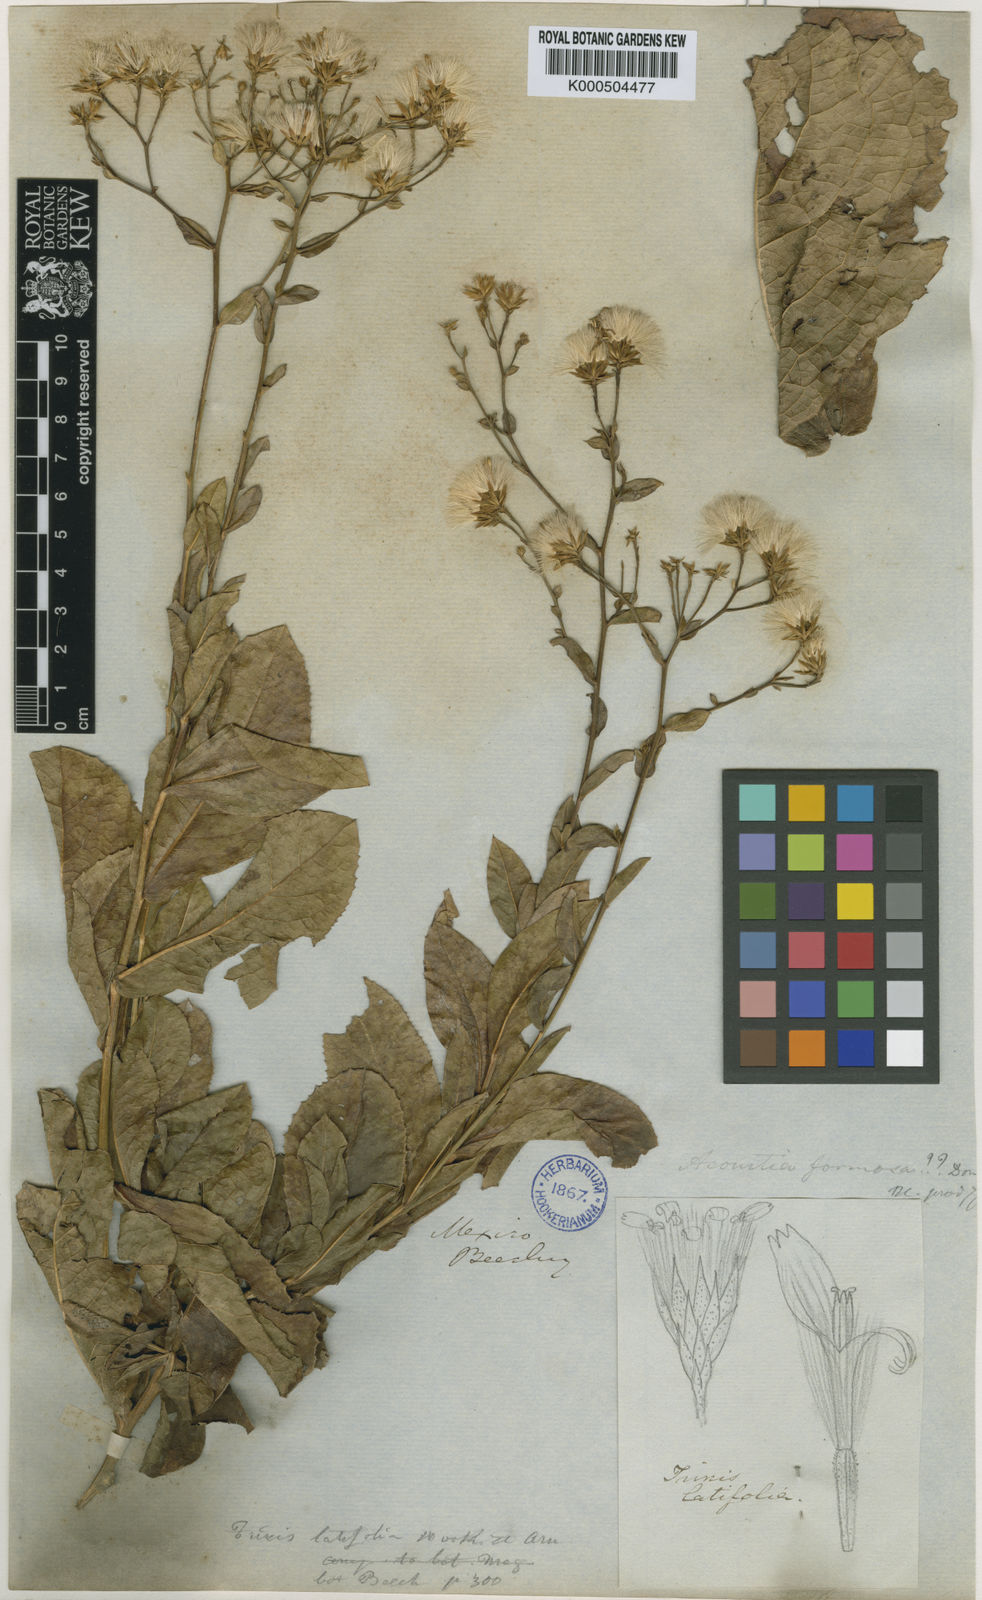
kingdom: Plantae
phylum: Tracheophyta
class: Magnoliopsida
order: Asterales
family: Asteraceae
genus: Acourtia
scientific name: Acourtia thurberi
